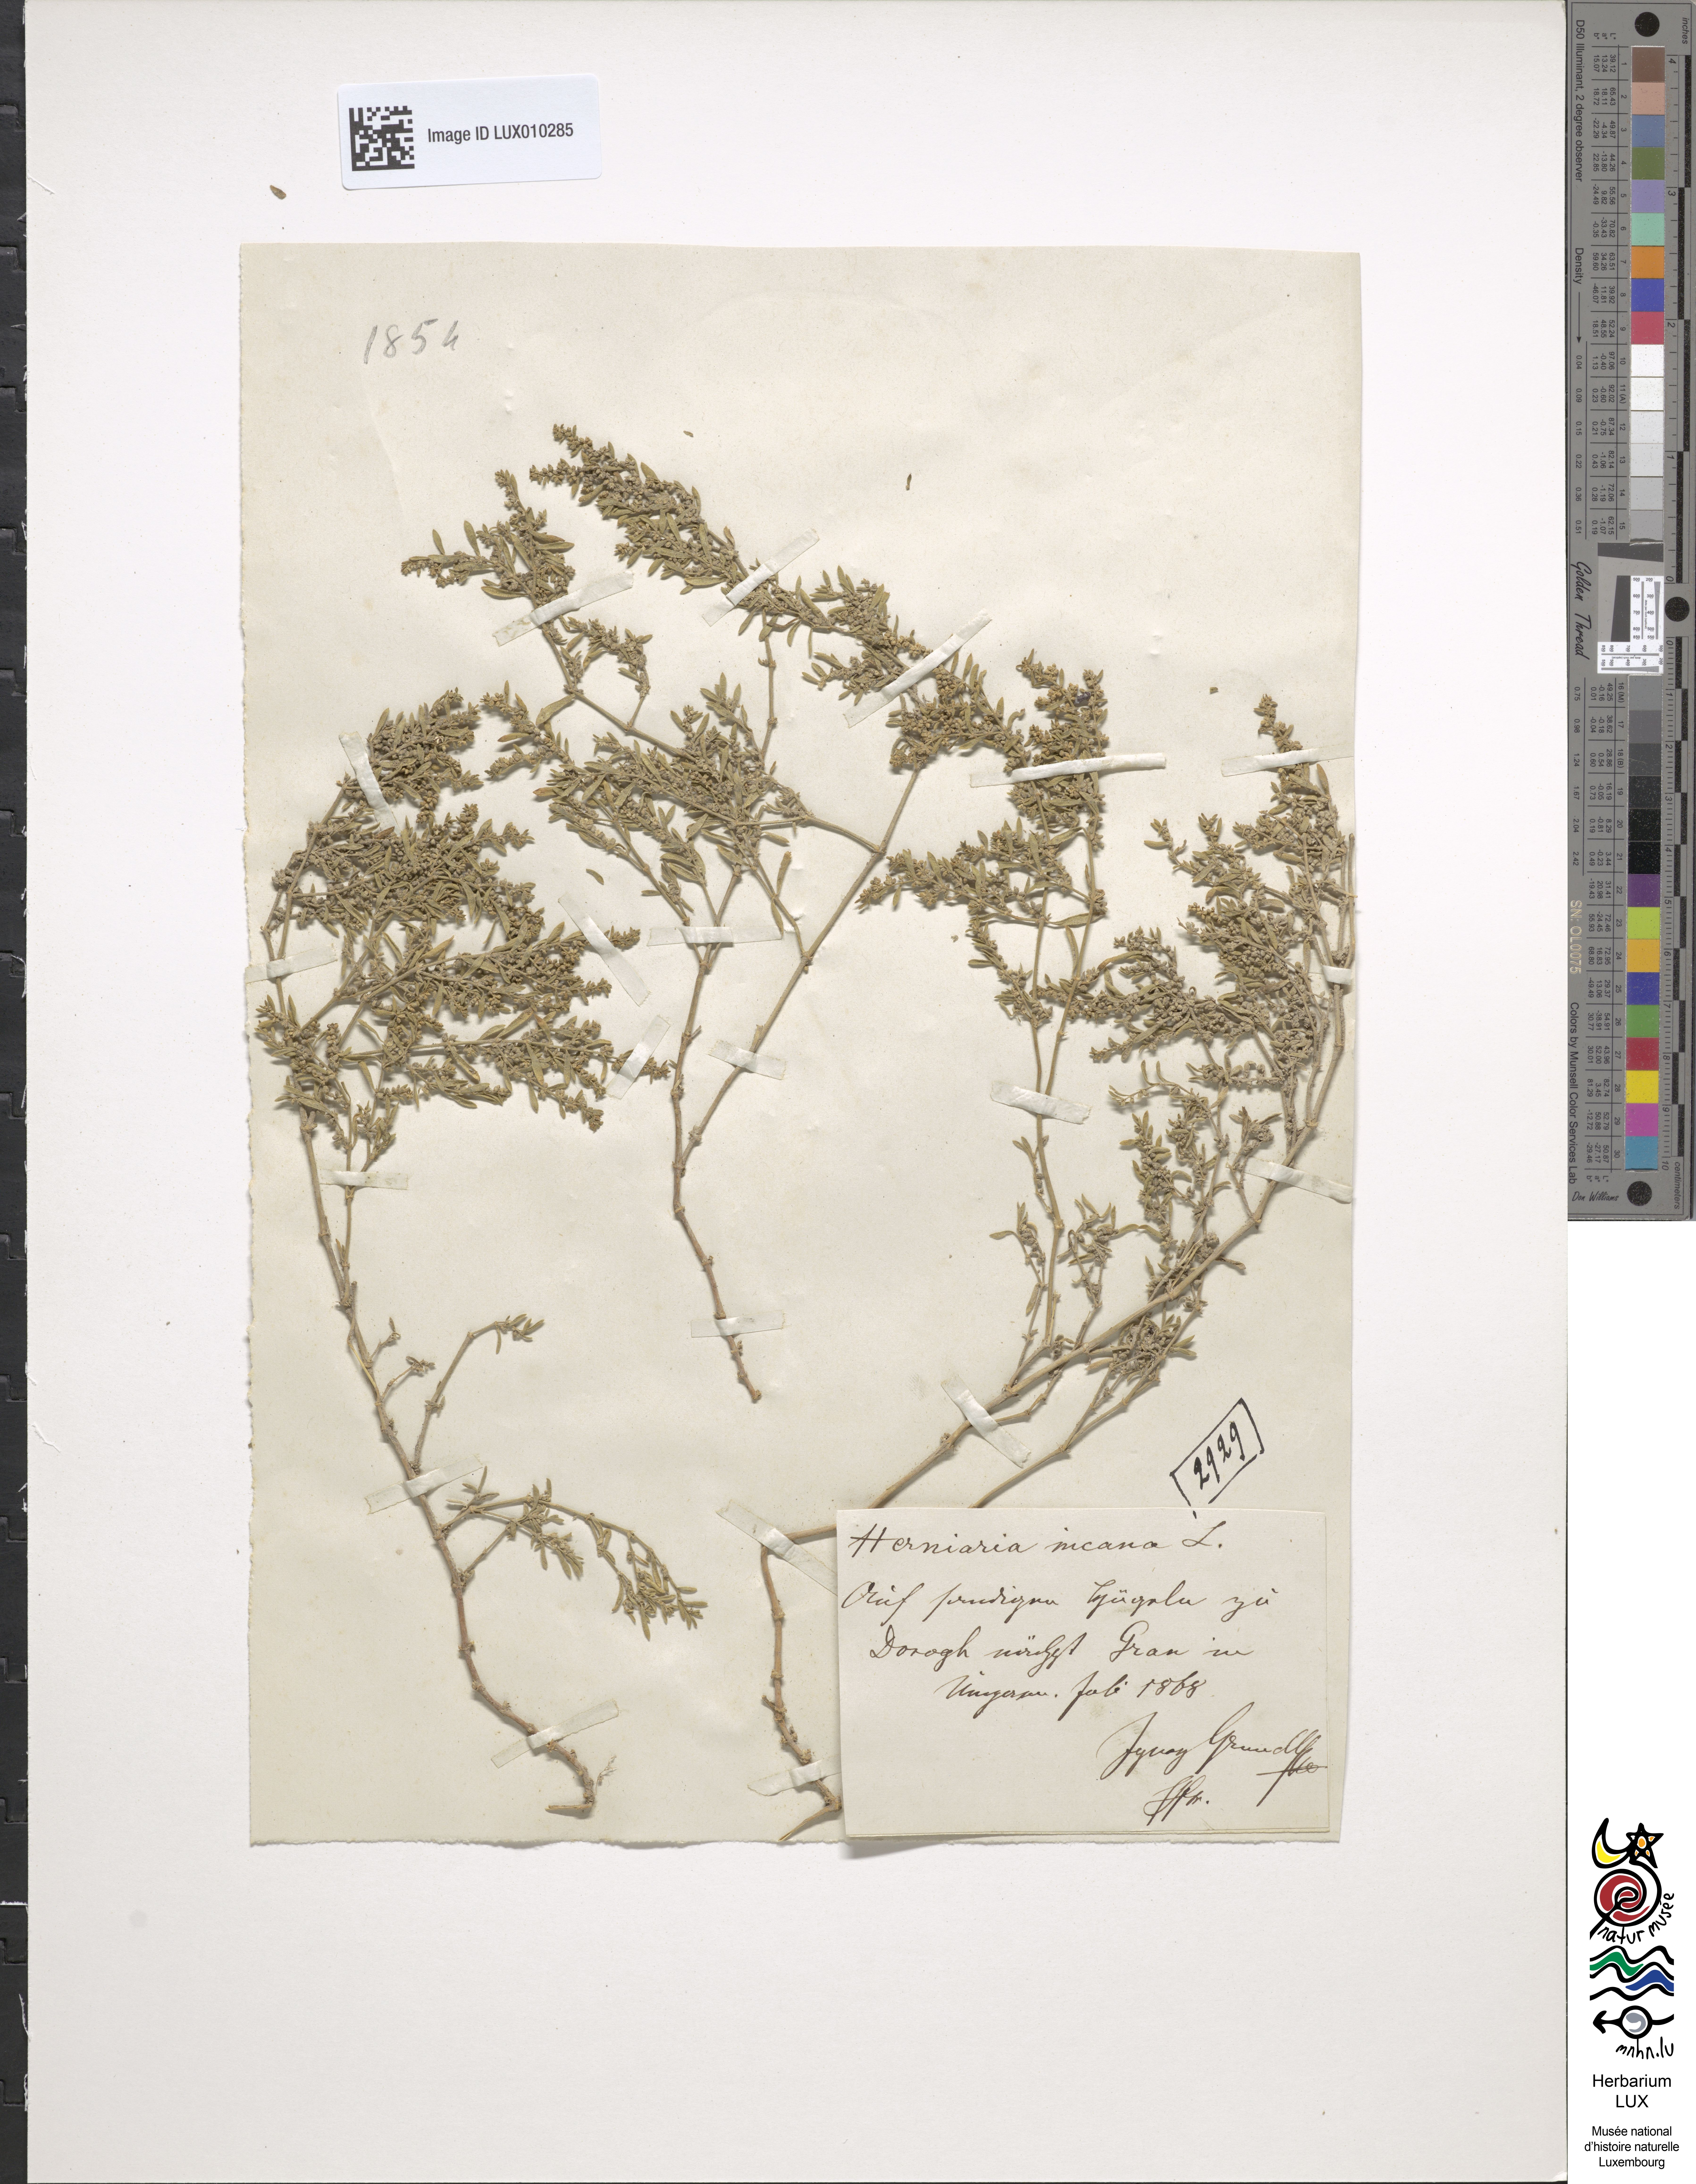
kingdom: Plantae
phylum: Tracheophyta
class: Magnoliopsida
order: Caryophyllales
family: Caryophyllaceae
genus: Herniaria
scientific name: Herniaria incana
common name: Gray rupturewort
